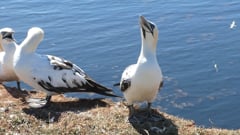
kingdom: Animalia
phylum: Chordata
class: Aves
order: Suliformes
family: Sulidae
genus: Morus
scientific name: Morus bassanus
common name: Northern gannet
